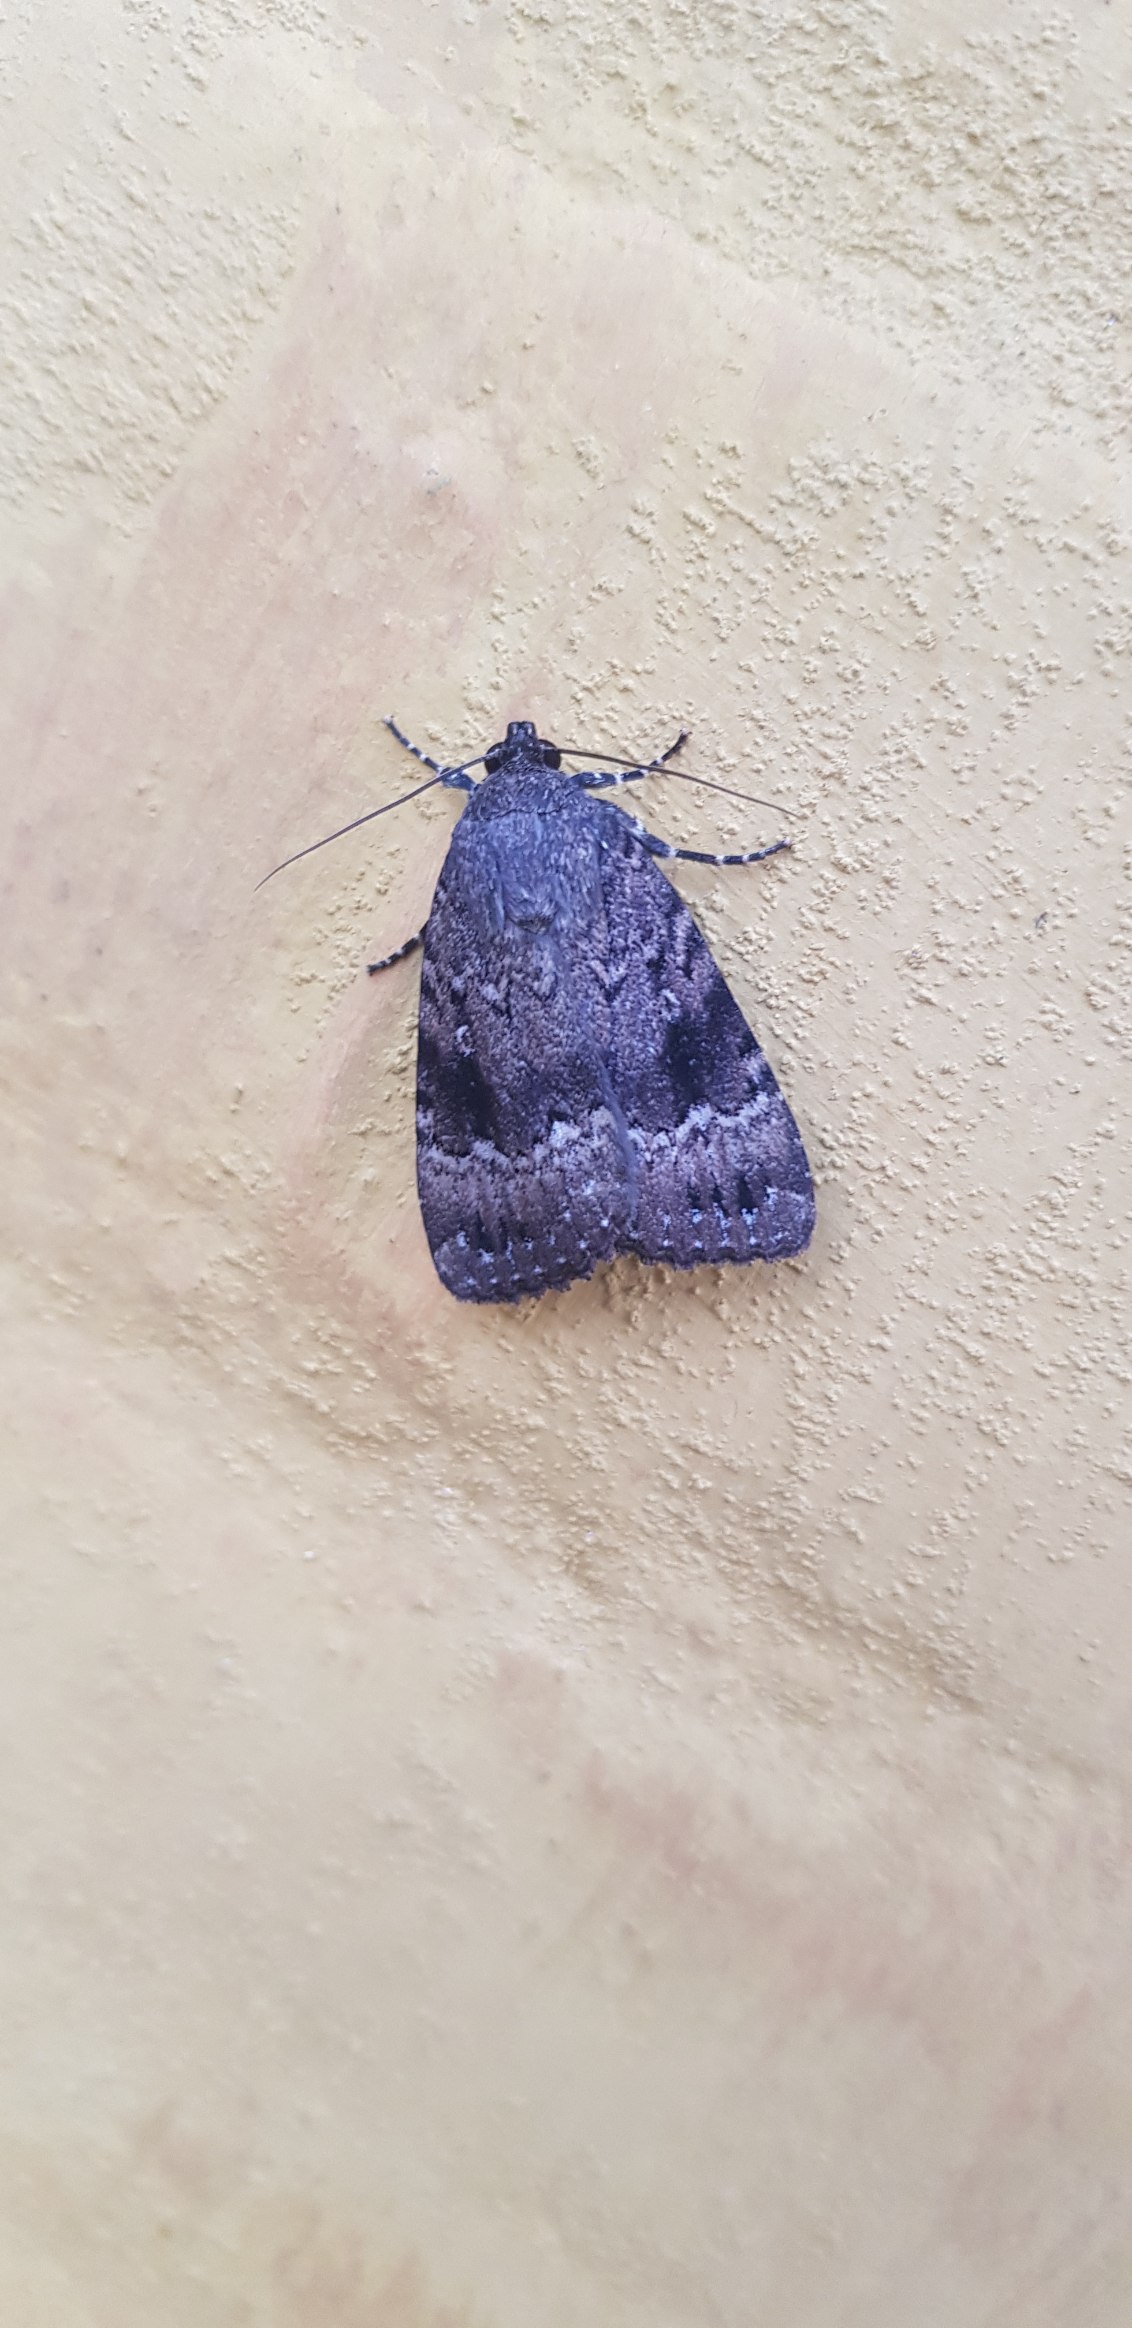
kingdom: Animalia
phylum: Arthropoda
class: Insecta
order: Lepidoptera
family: Noctuidae
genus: Amphipyra
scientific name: Amphipyra pyramidea
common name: Pyramideugle
